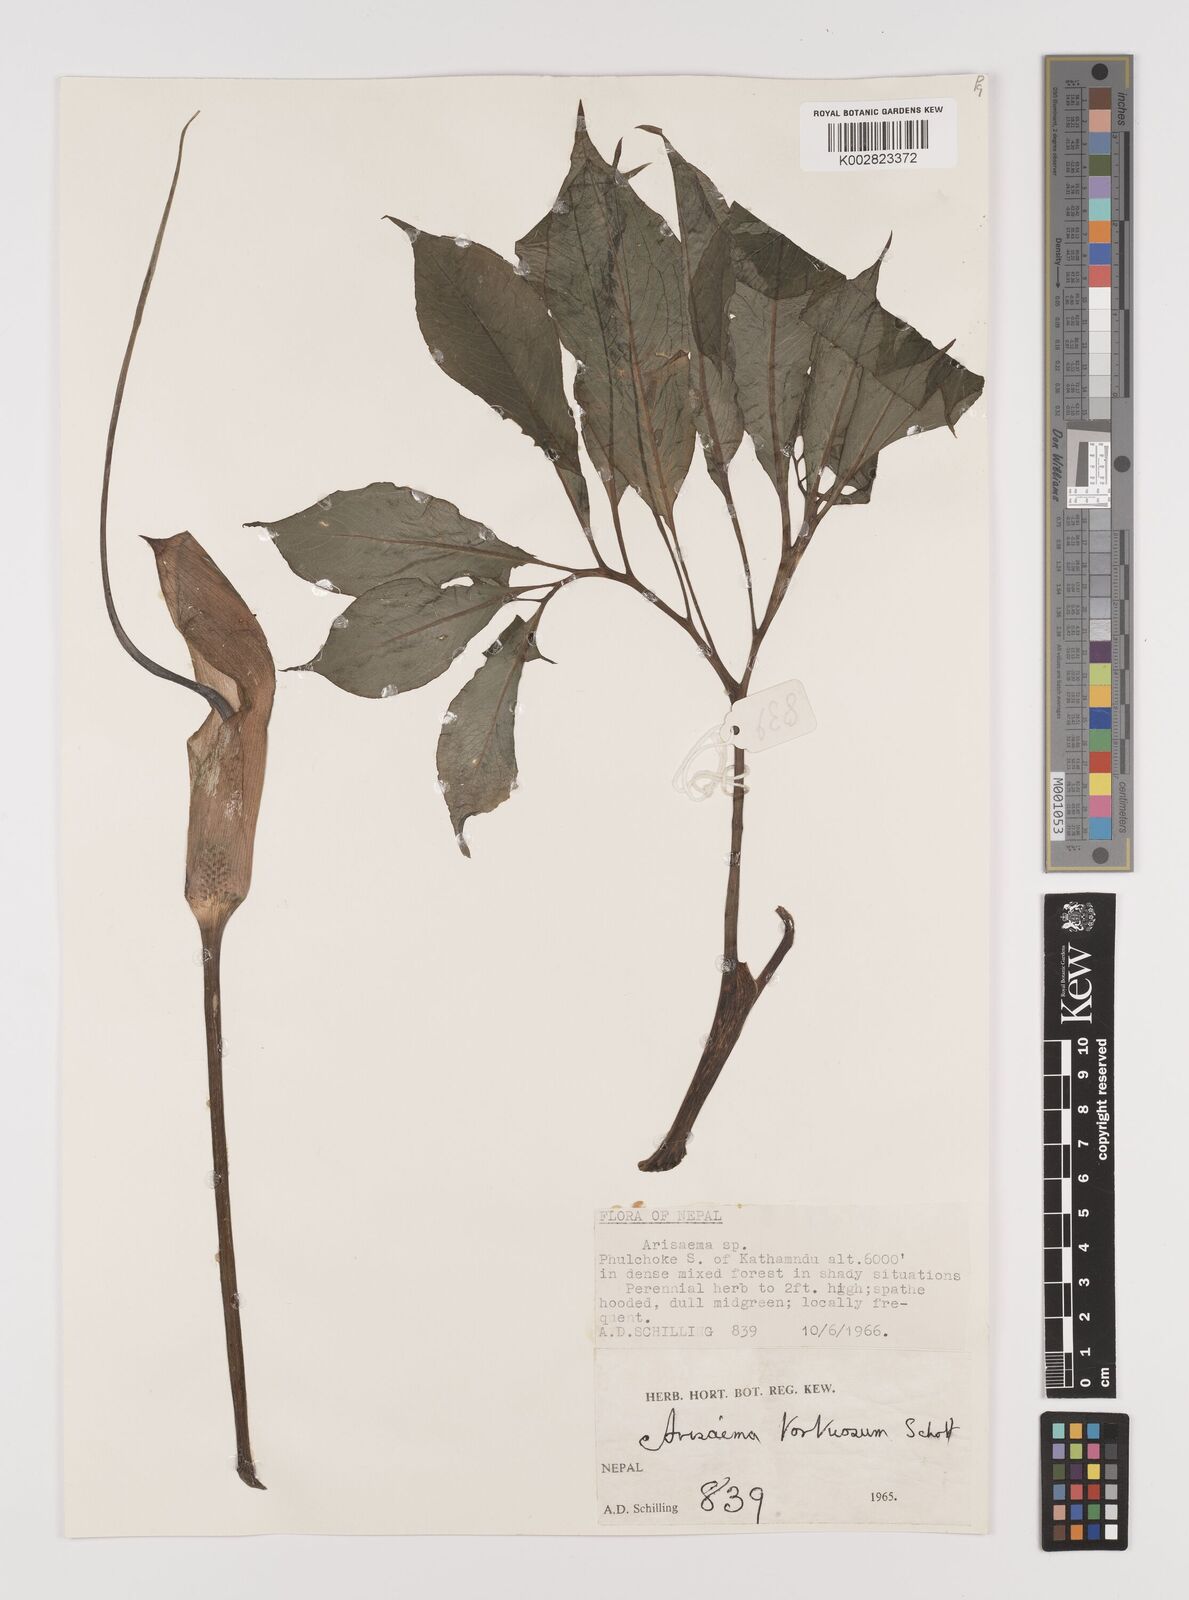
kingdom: Plantae
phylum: Tracheophyta
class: Liliopsida
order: Alismatales
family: Araceae
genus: Arisaema
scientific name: Arisaema tortuosum
